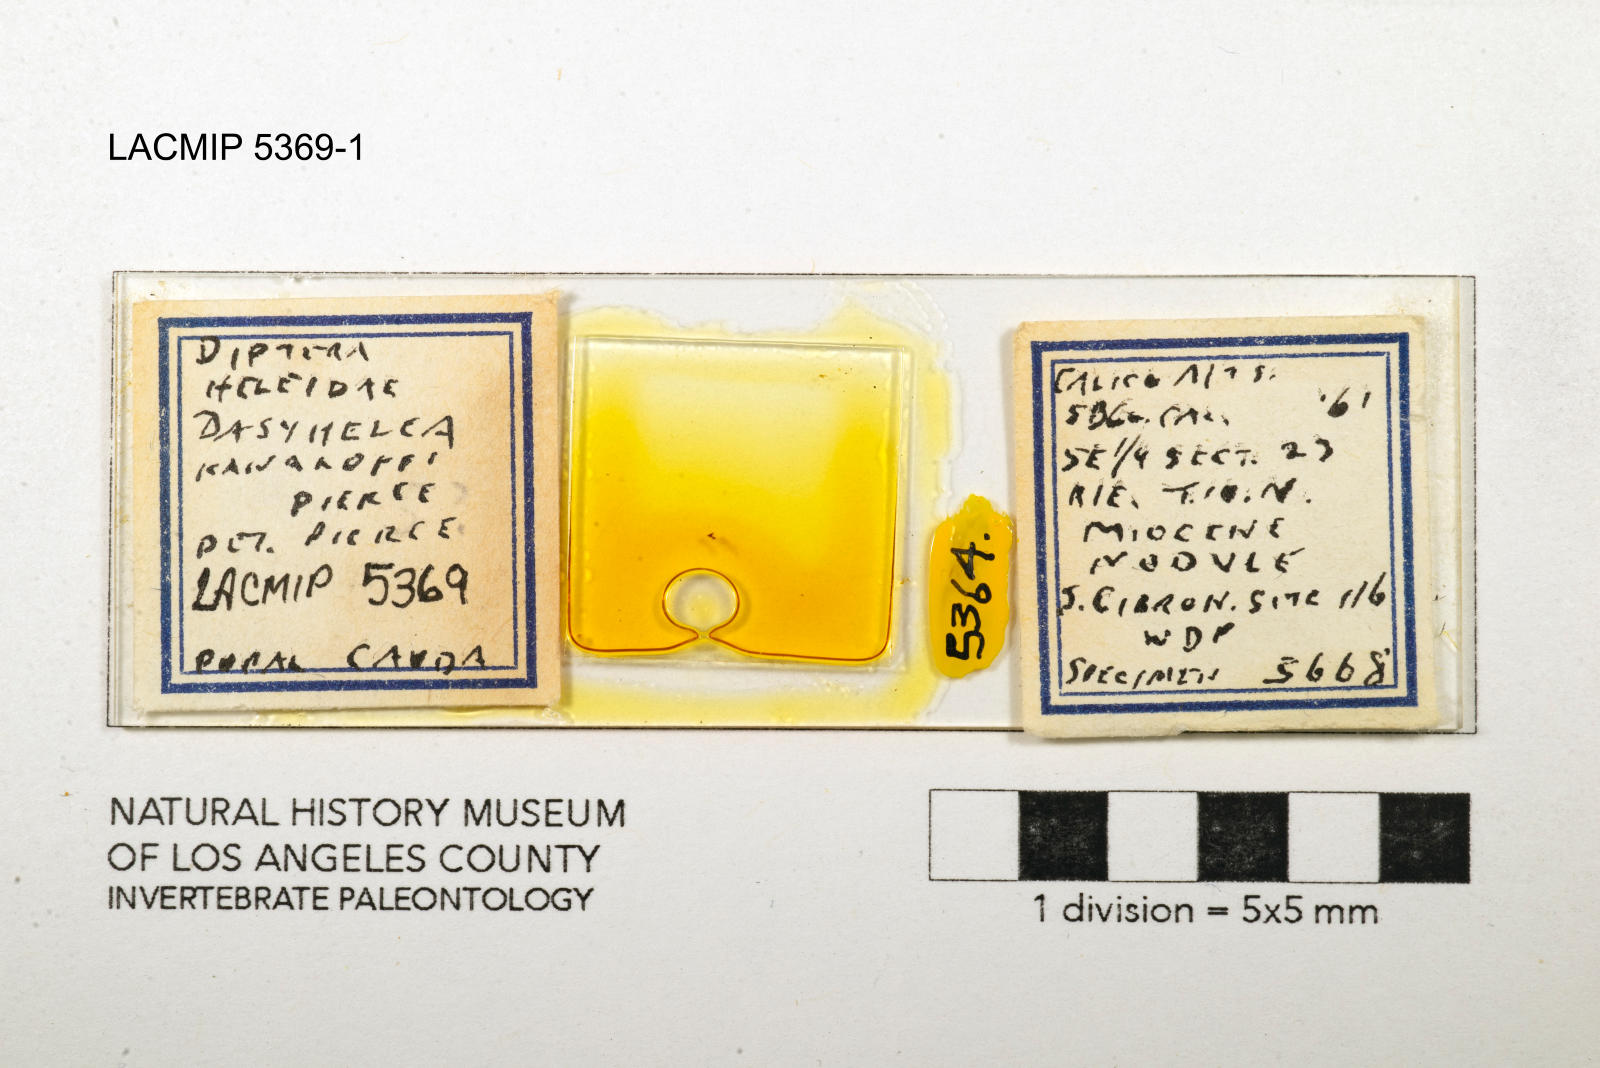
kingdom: Animalia
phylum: Arthropoda
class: Insecta
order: Diptera
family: Ceratopogonidae
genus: Dasyhelea
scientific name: Dasyhelea kanakoffi
